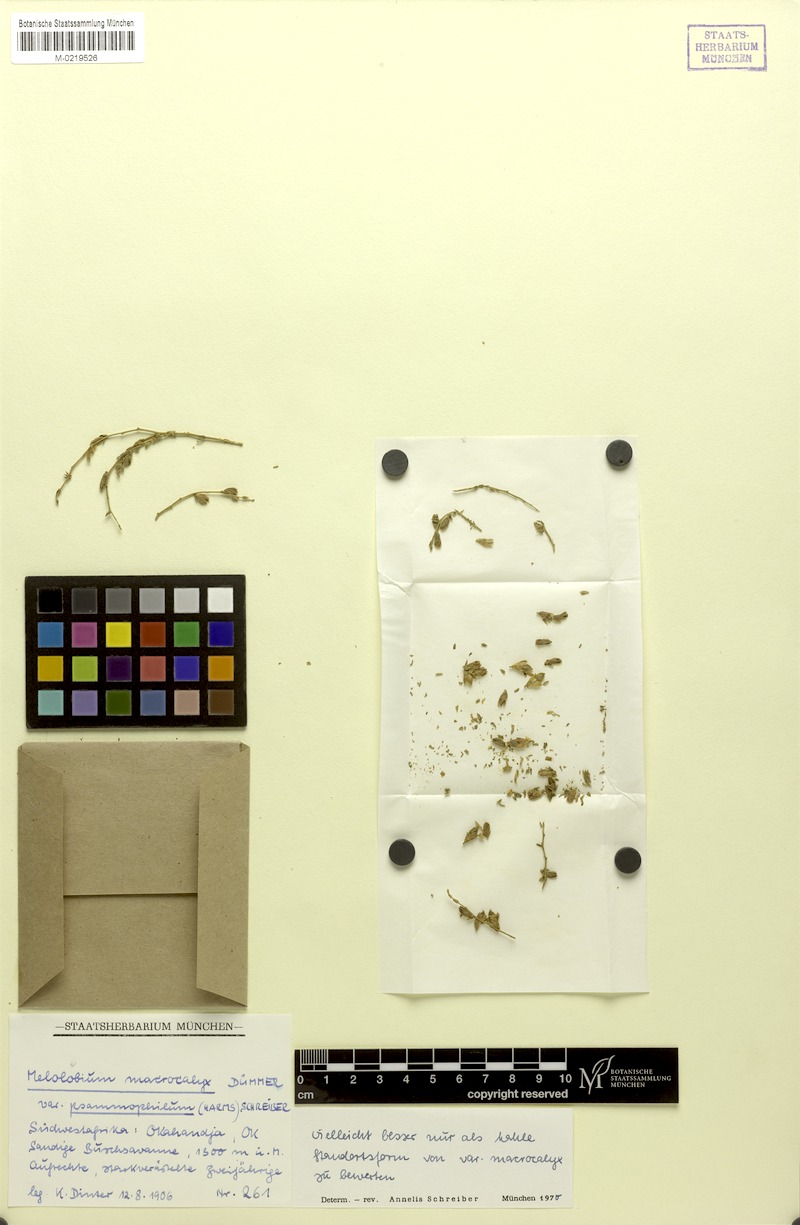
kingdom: Plantae
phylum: Tracheophyta
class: Magnoliopsida
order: Fabales
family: Fabaceae
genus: Melolobium
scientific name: Melolobium macrocalyx
